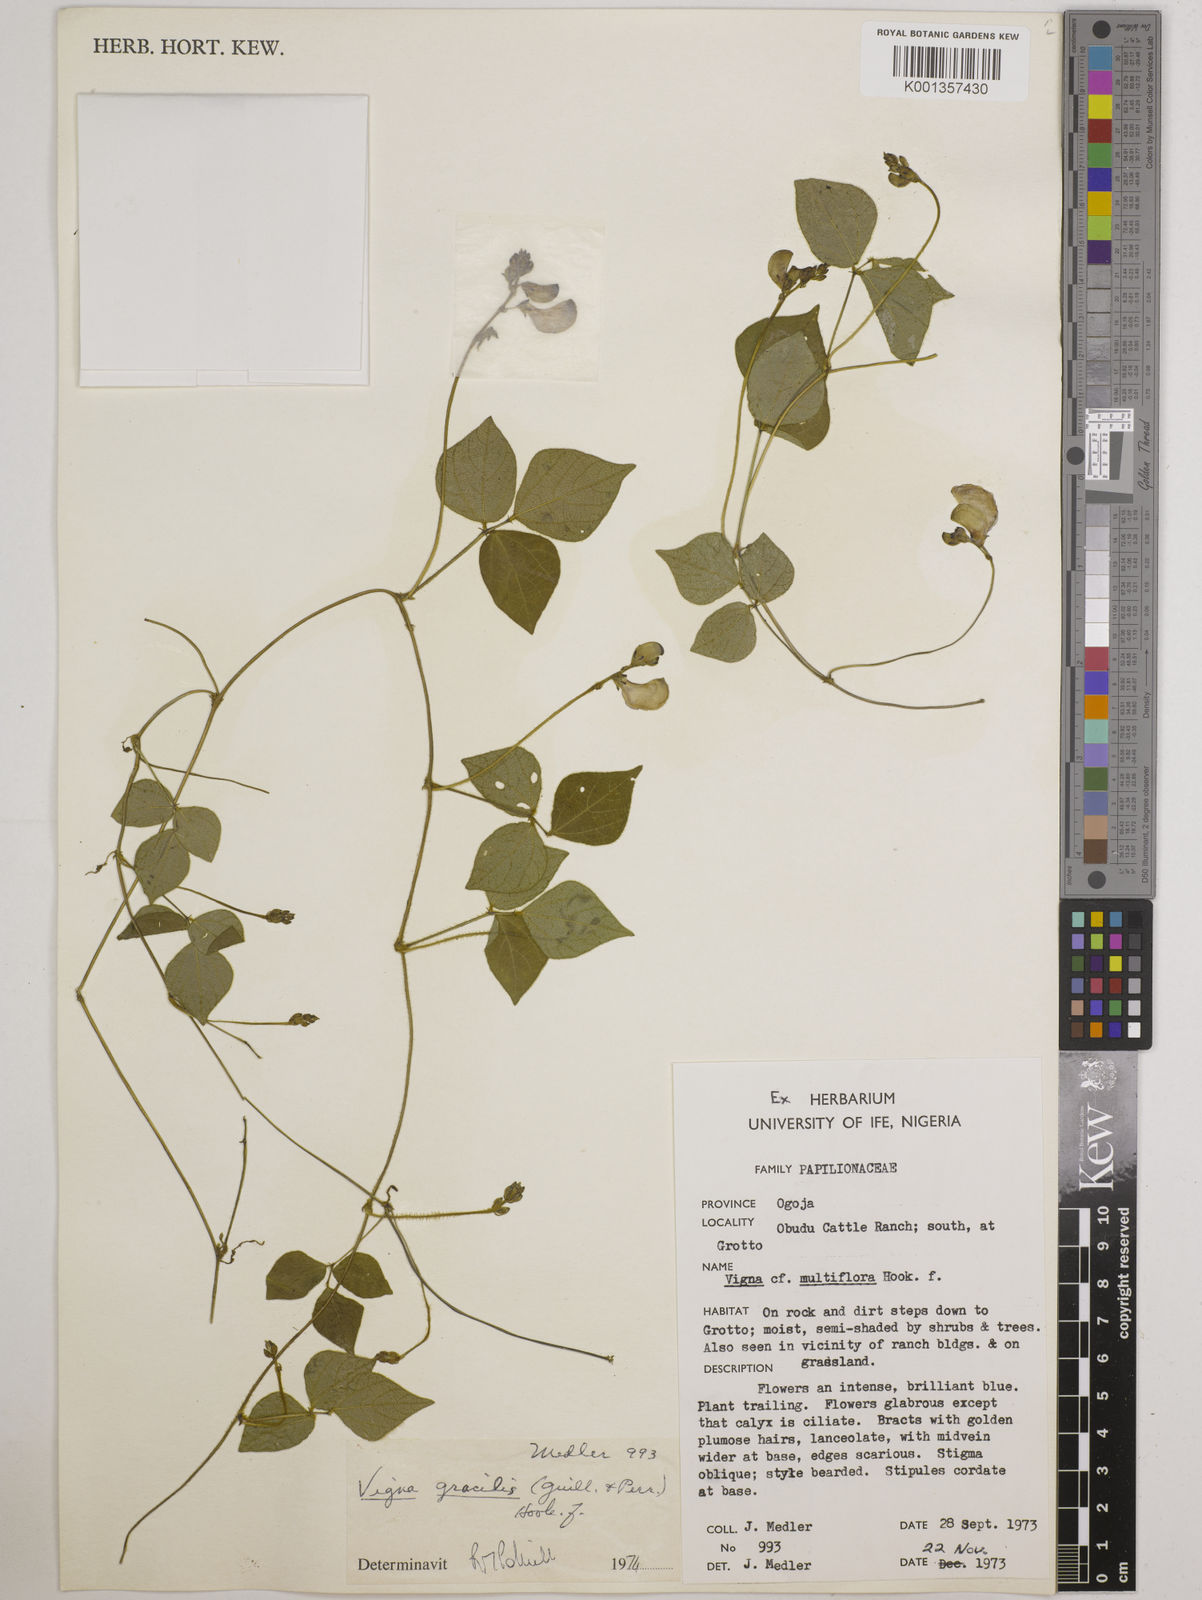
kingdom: Plantae
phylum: Tracheophyta
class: Magnoliopsida
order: Fabales
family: Fabaceae
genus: Vigna
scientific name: Vigna gracilis
